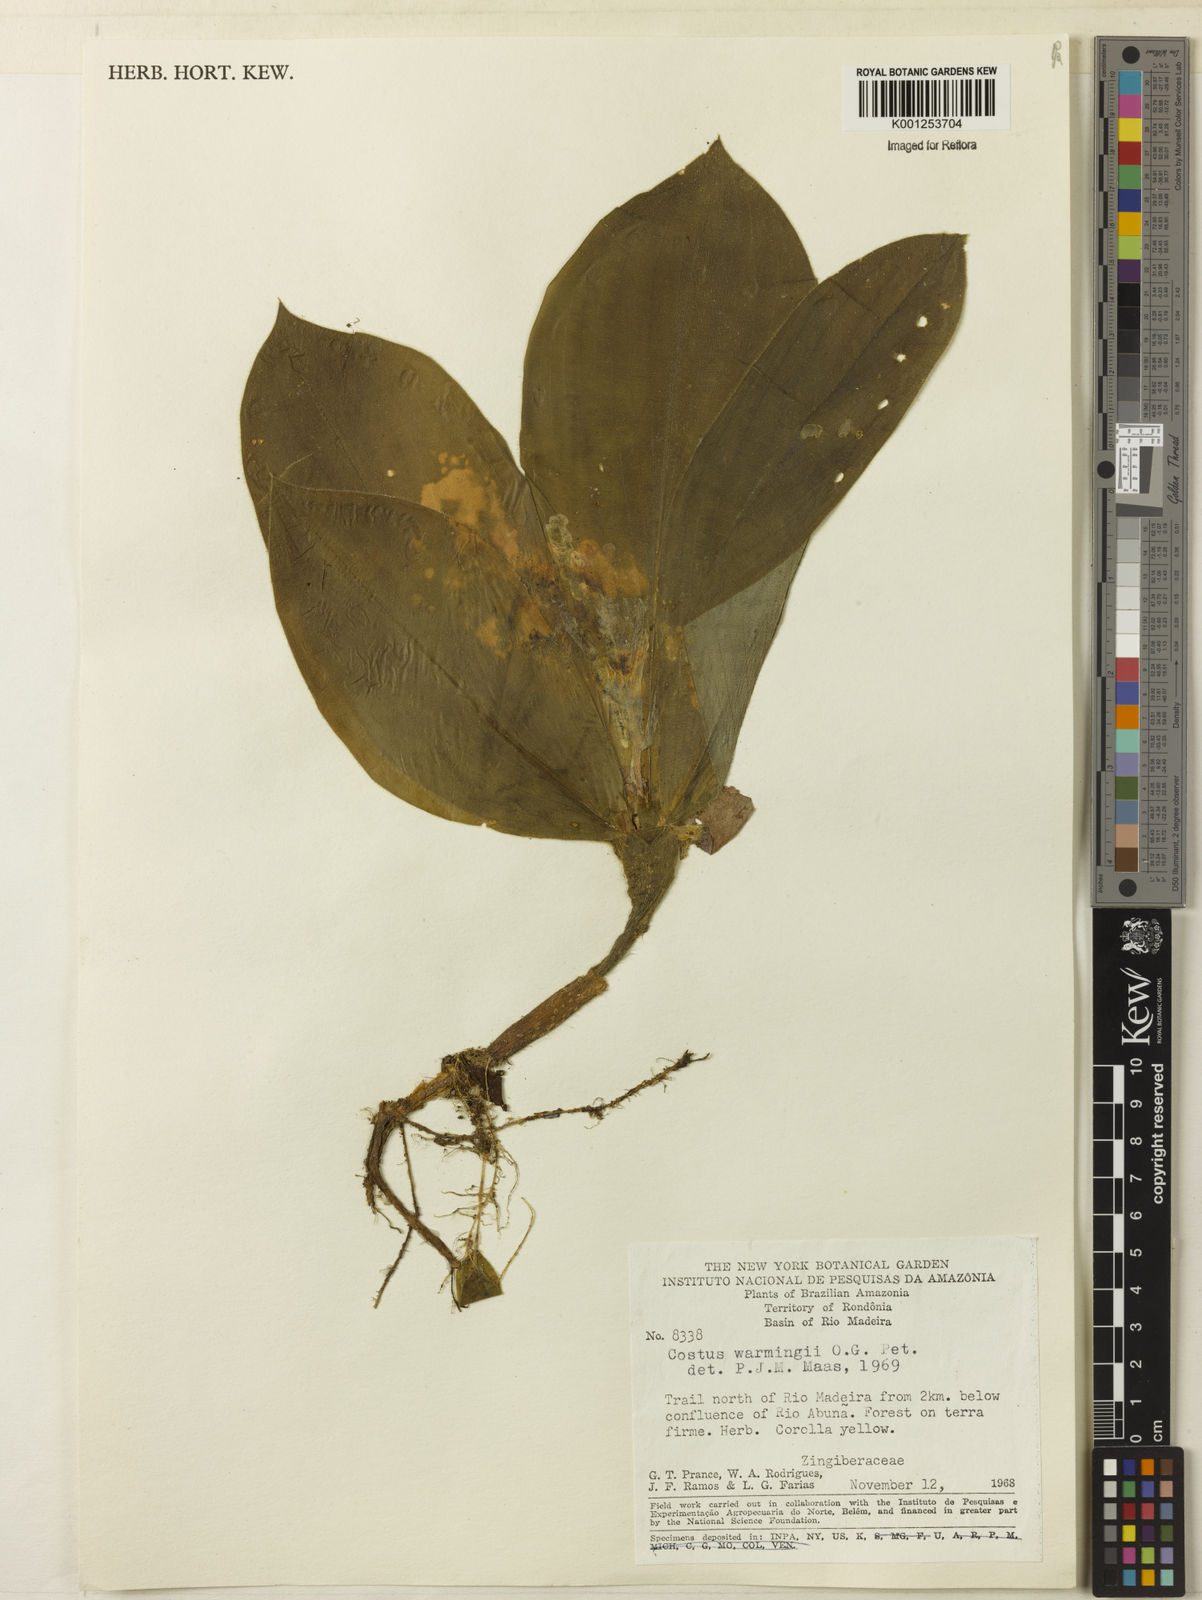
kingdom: Plantae
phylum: Tracheophyta
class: Liliopsida
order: Zingiberales
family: Costaceae
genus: Chamaecostus
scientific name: Chamaecostus subsessilis
